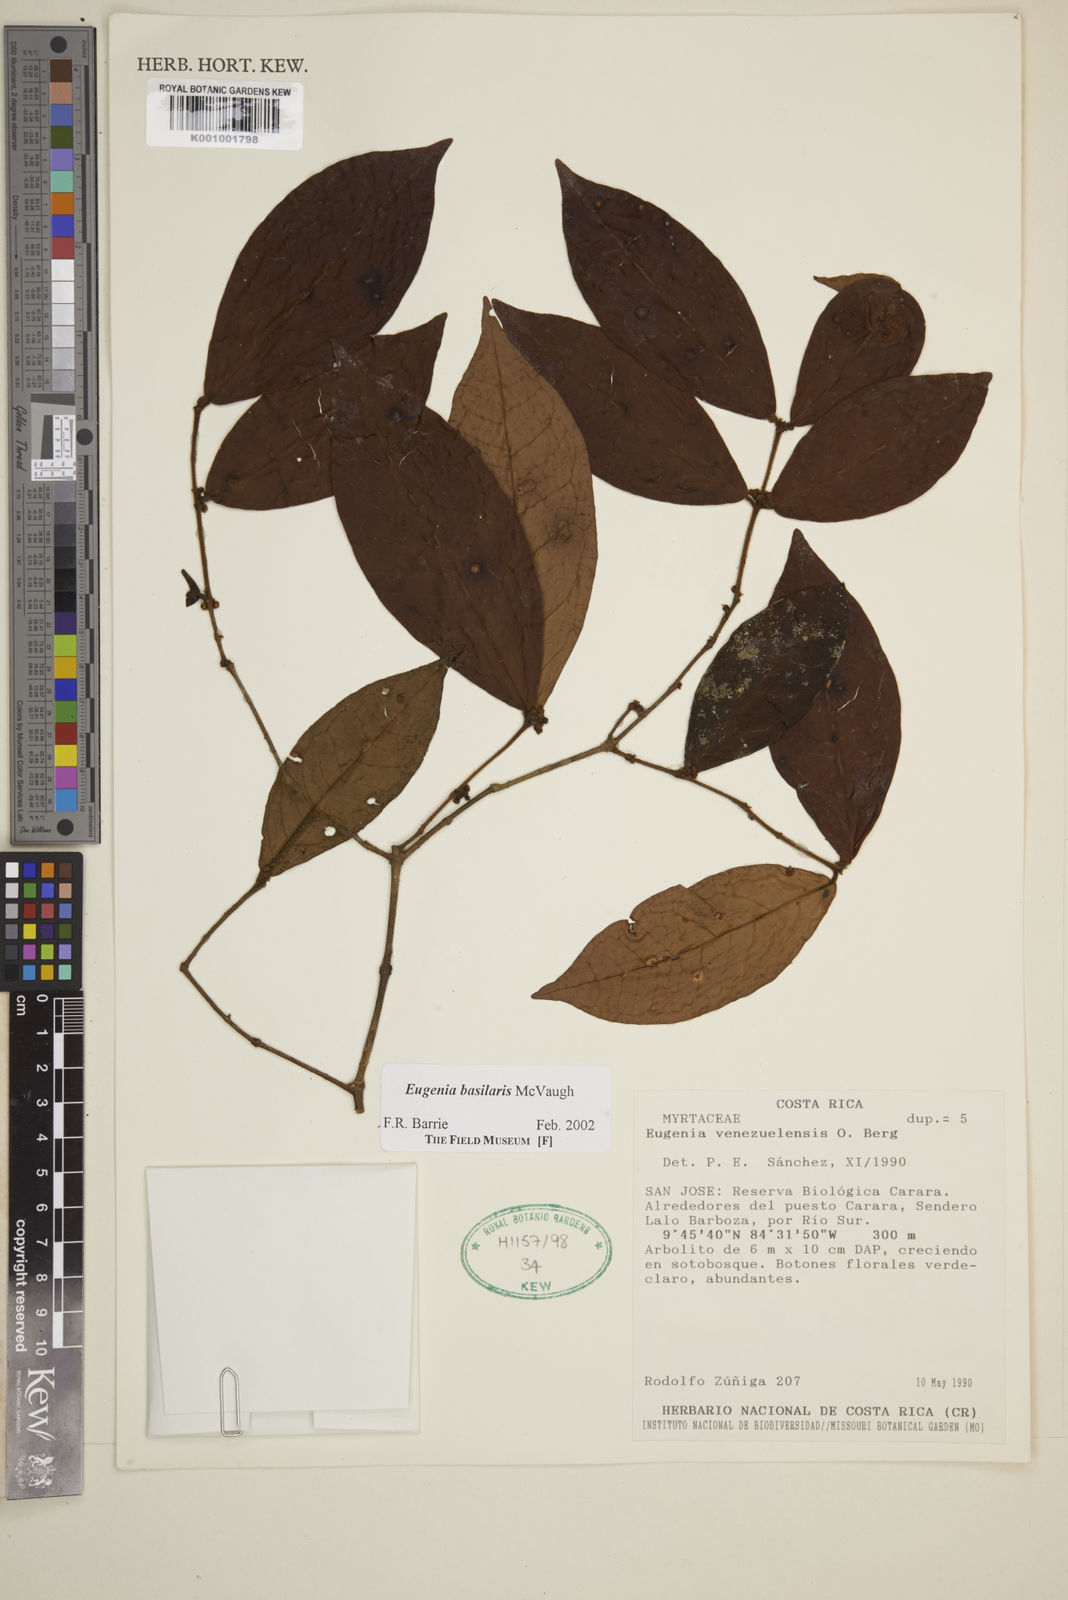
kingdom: Plantae
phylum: Tracheophyta
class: Magnoliopsida
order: Myrtales
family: Myrtaceae
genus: Eugenia
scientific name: Eugenia basilaris
